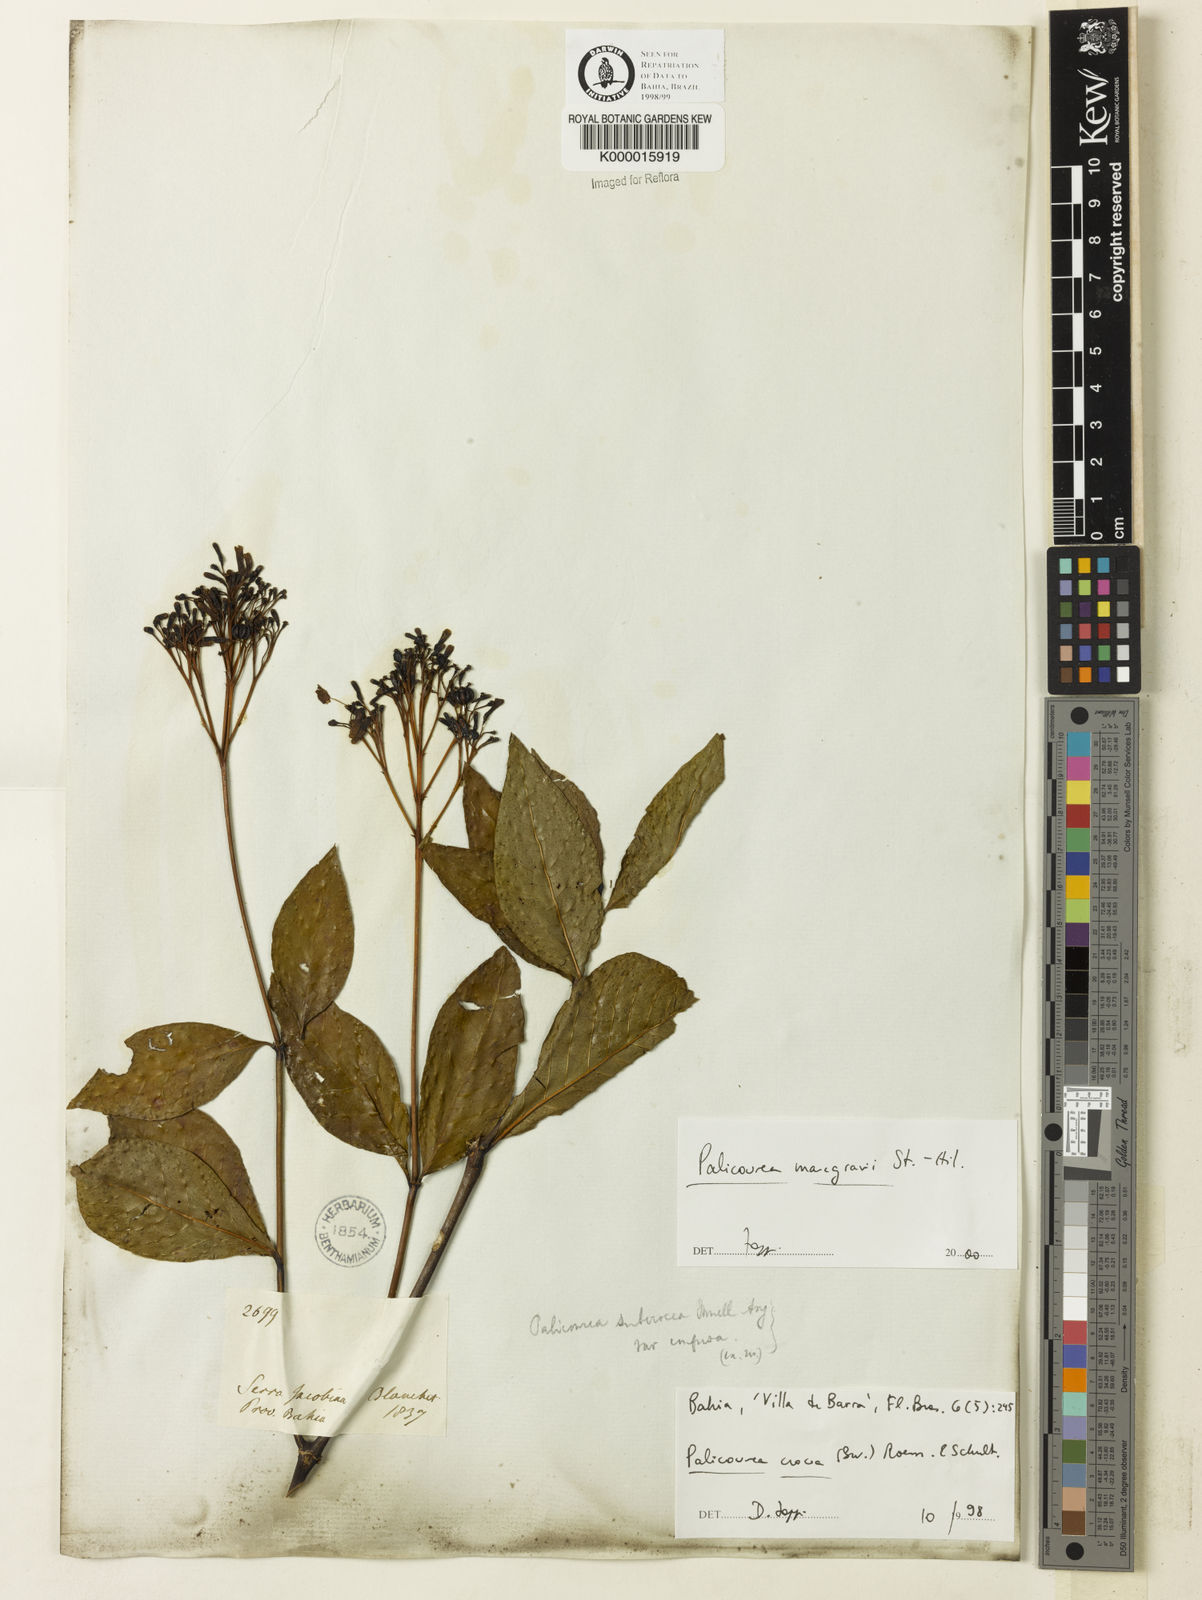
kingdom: Plantae
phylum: Tracheophyta
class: Magnoliopsida
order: Gentianales
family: Rubiaceae
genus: Palicourea
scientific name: Palicourea marcgravii
